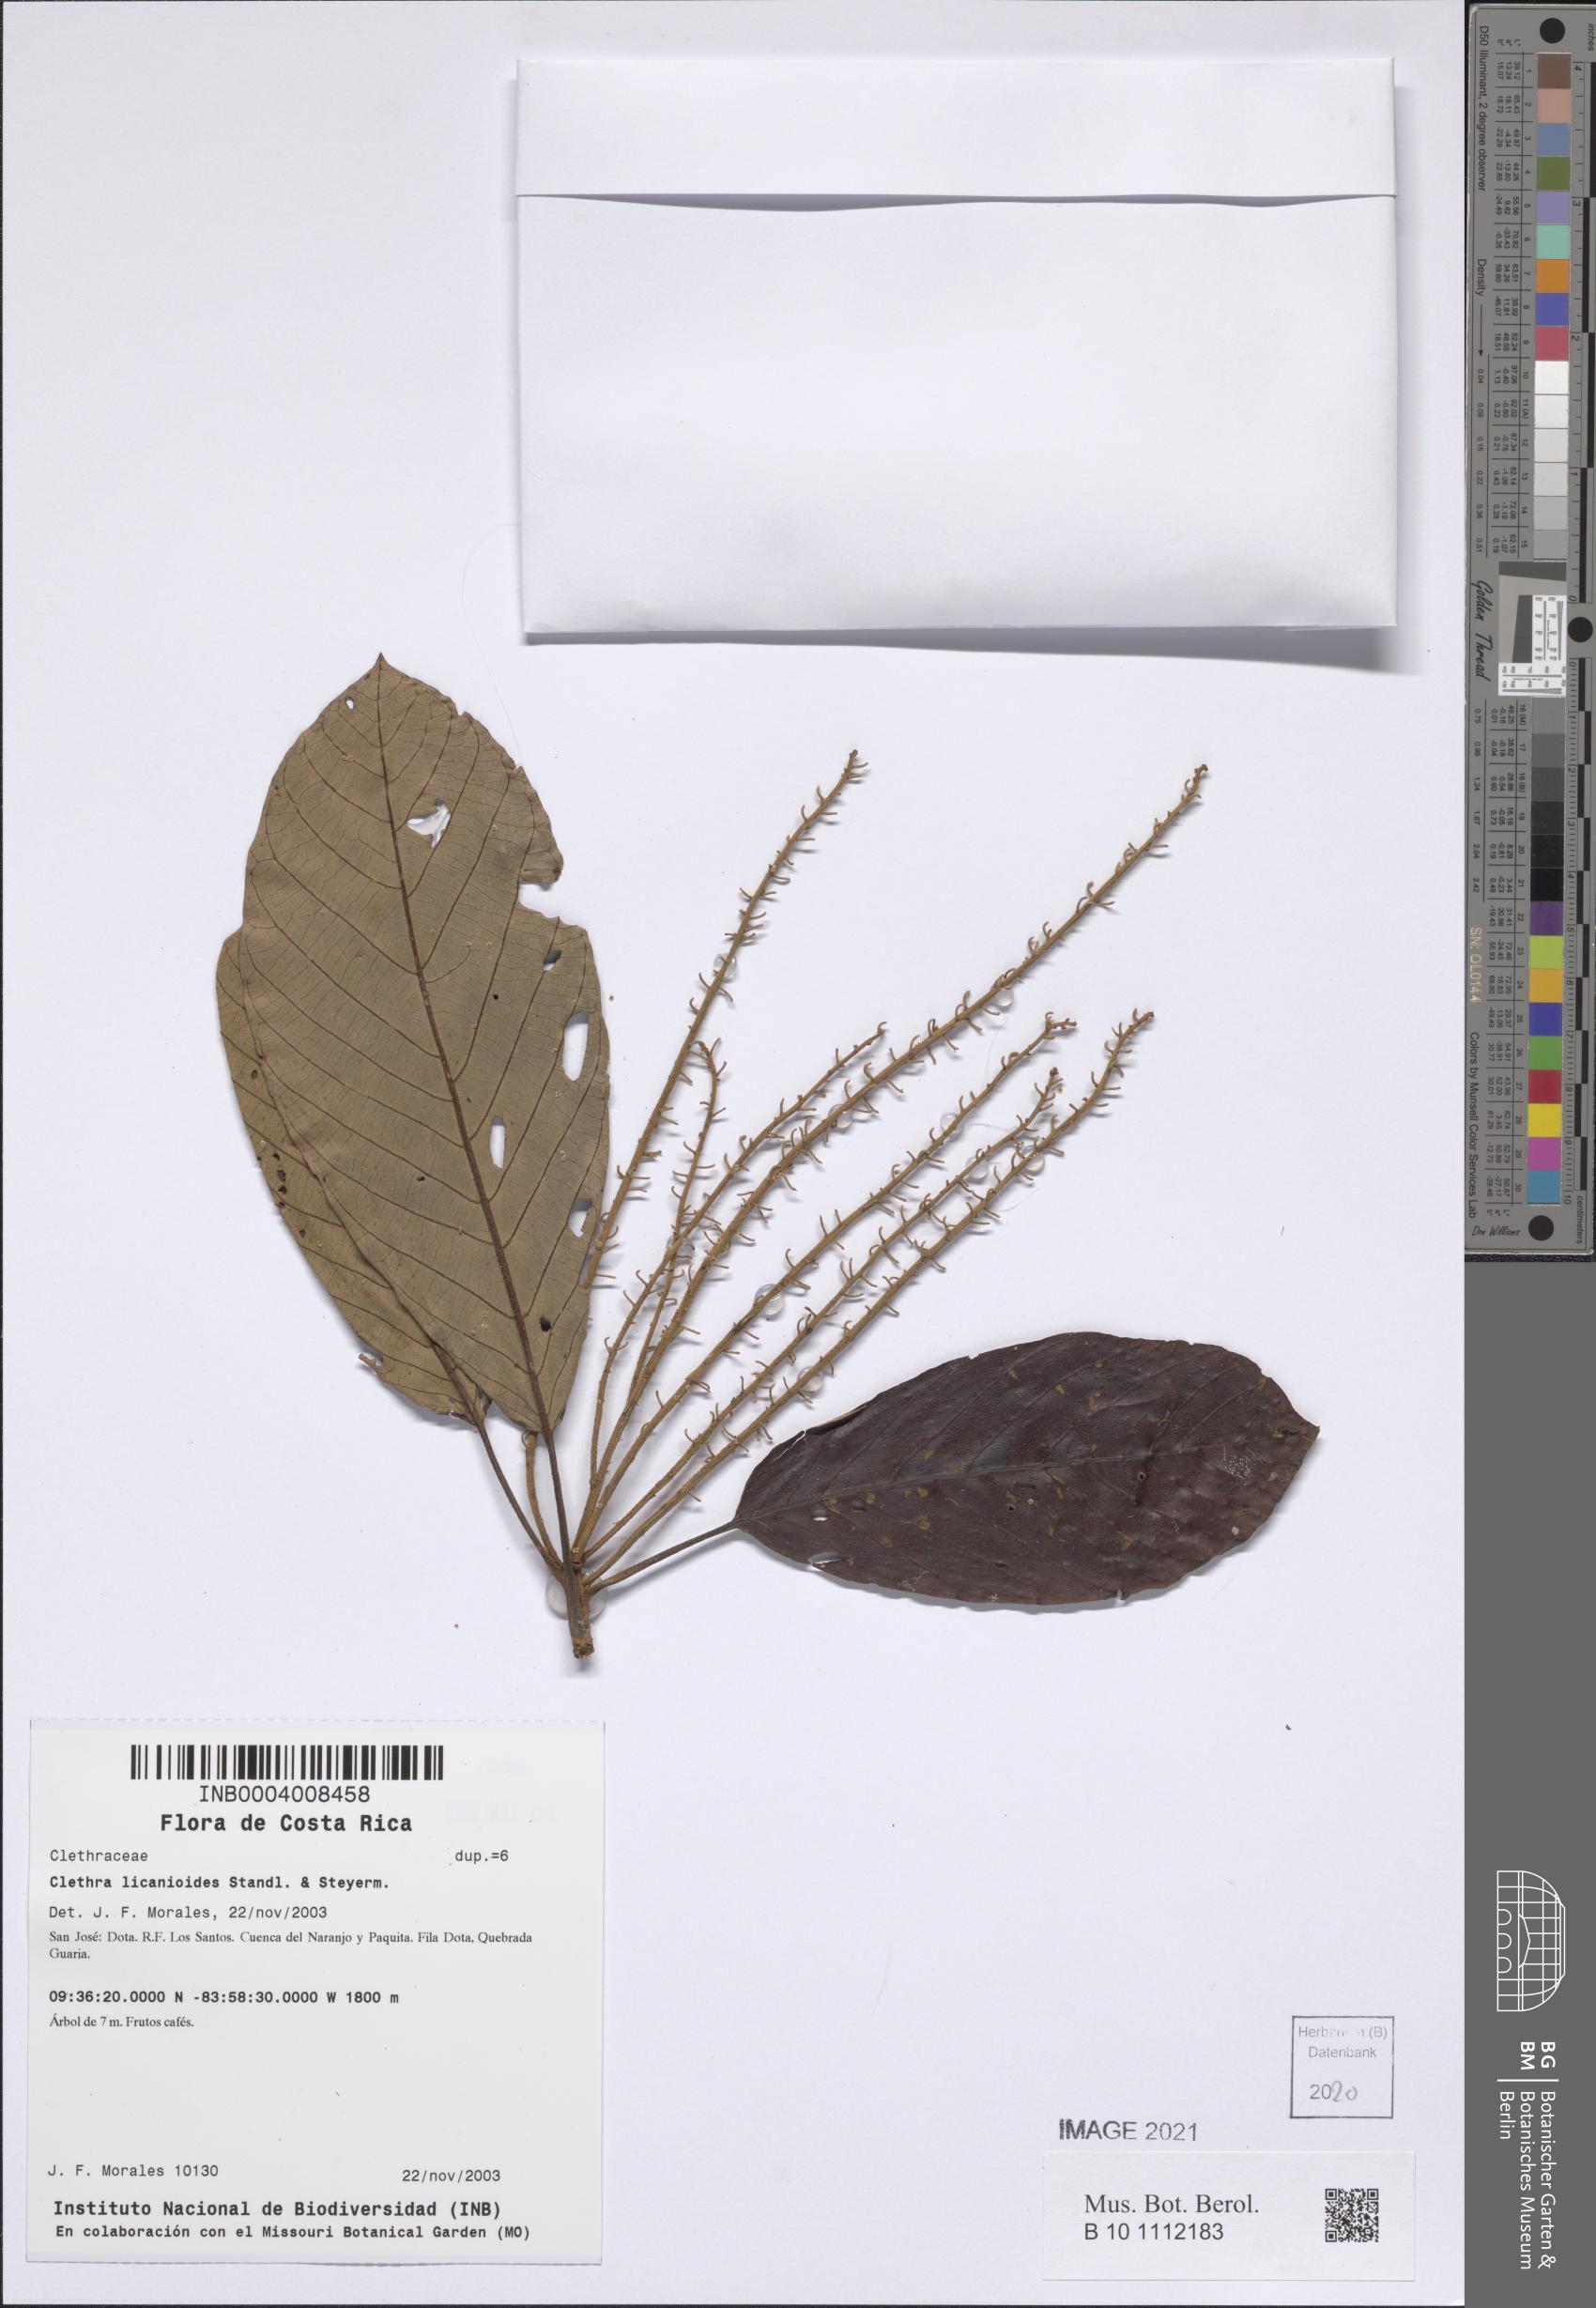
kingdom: Plantae
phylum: Tracheophyta
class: Magnoliopsida
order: Ericales
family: Clethraceae
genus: Clethra
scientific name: Clethra licanioides
